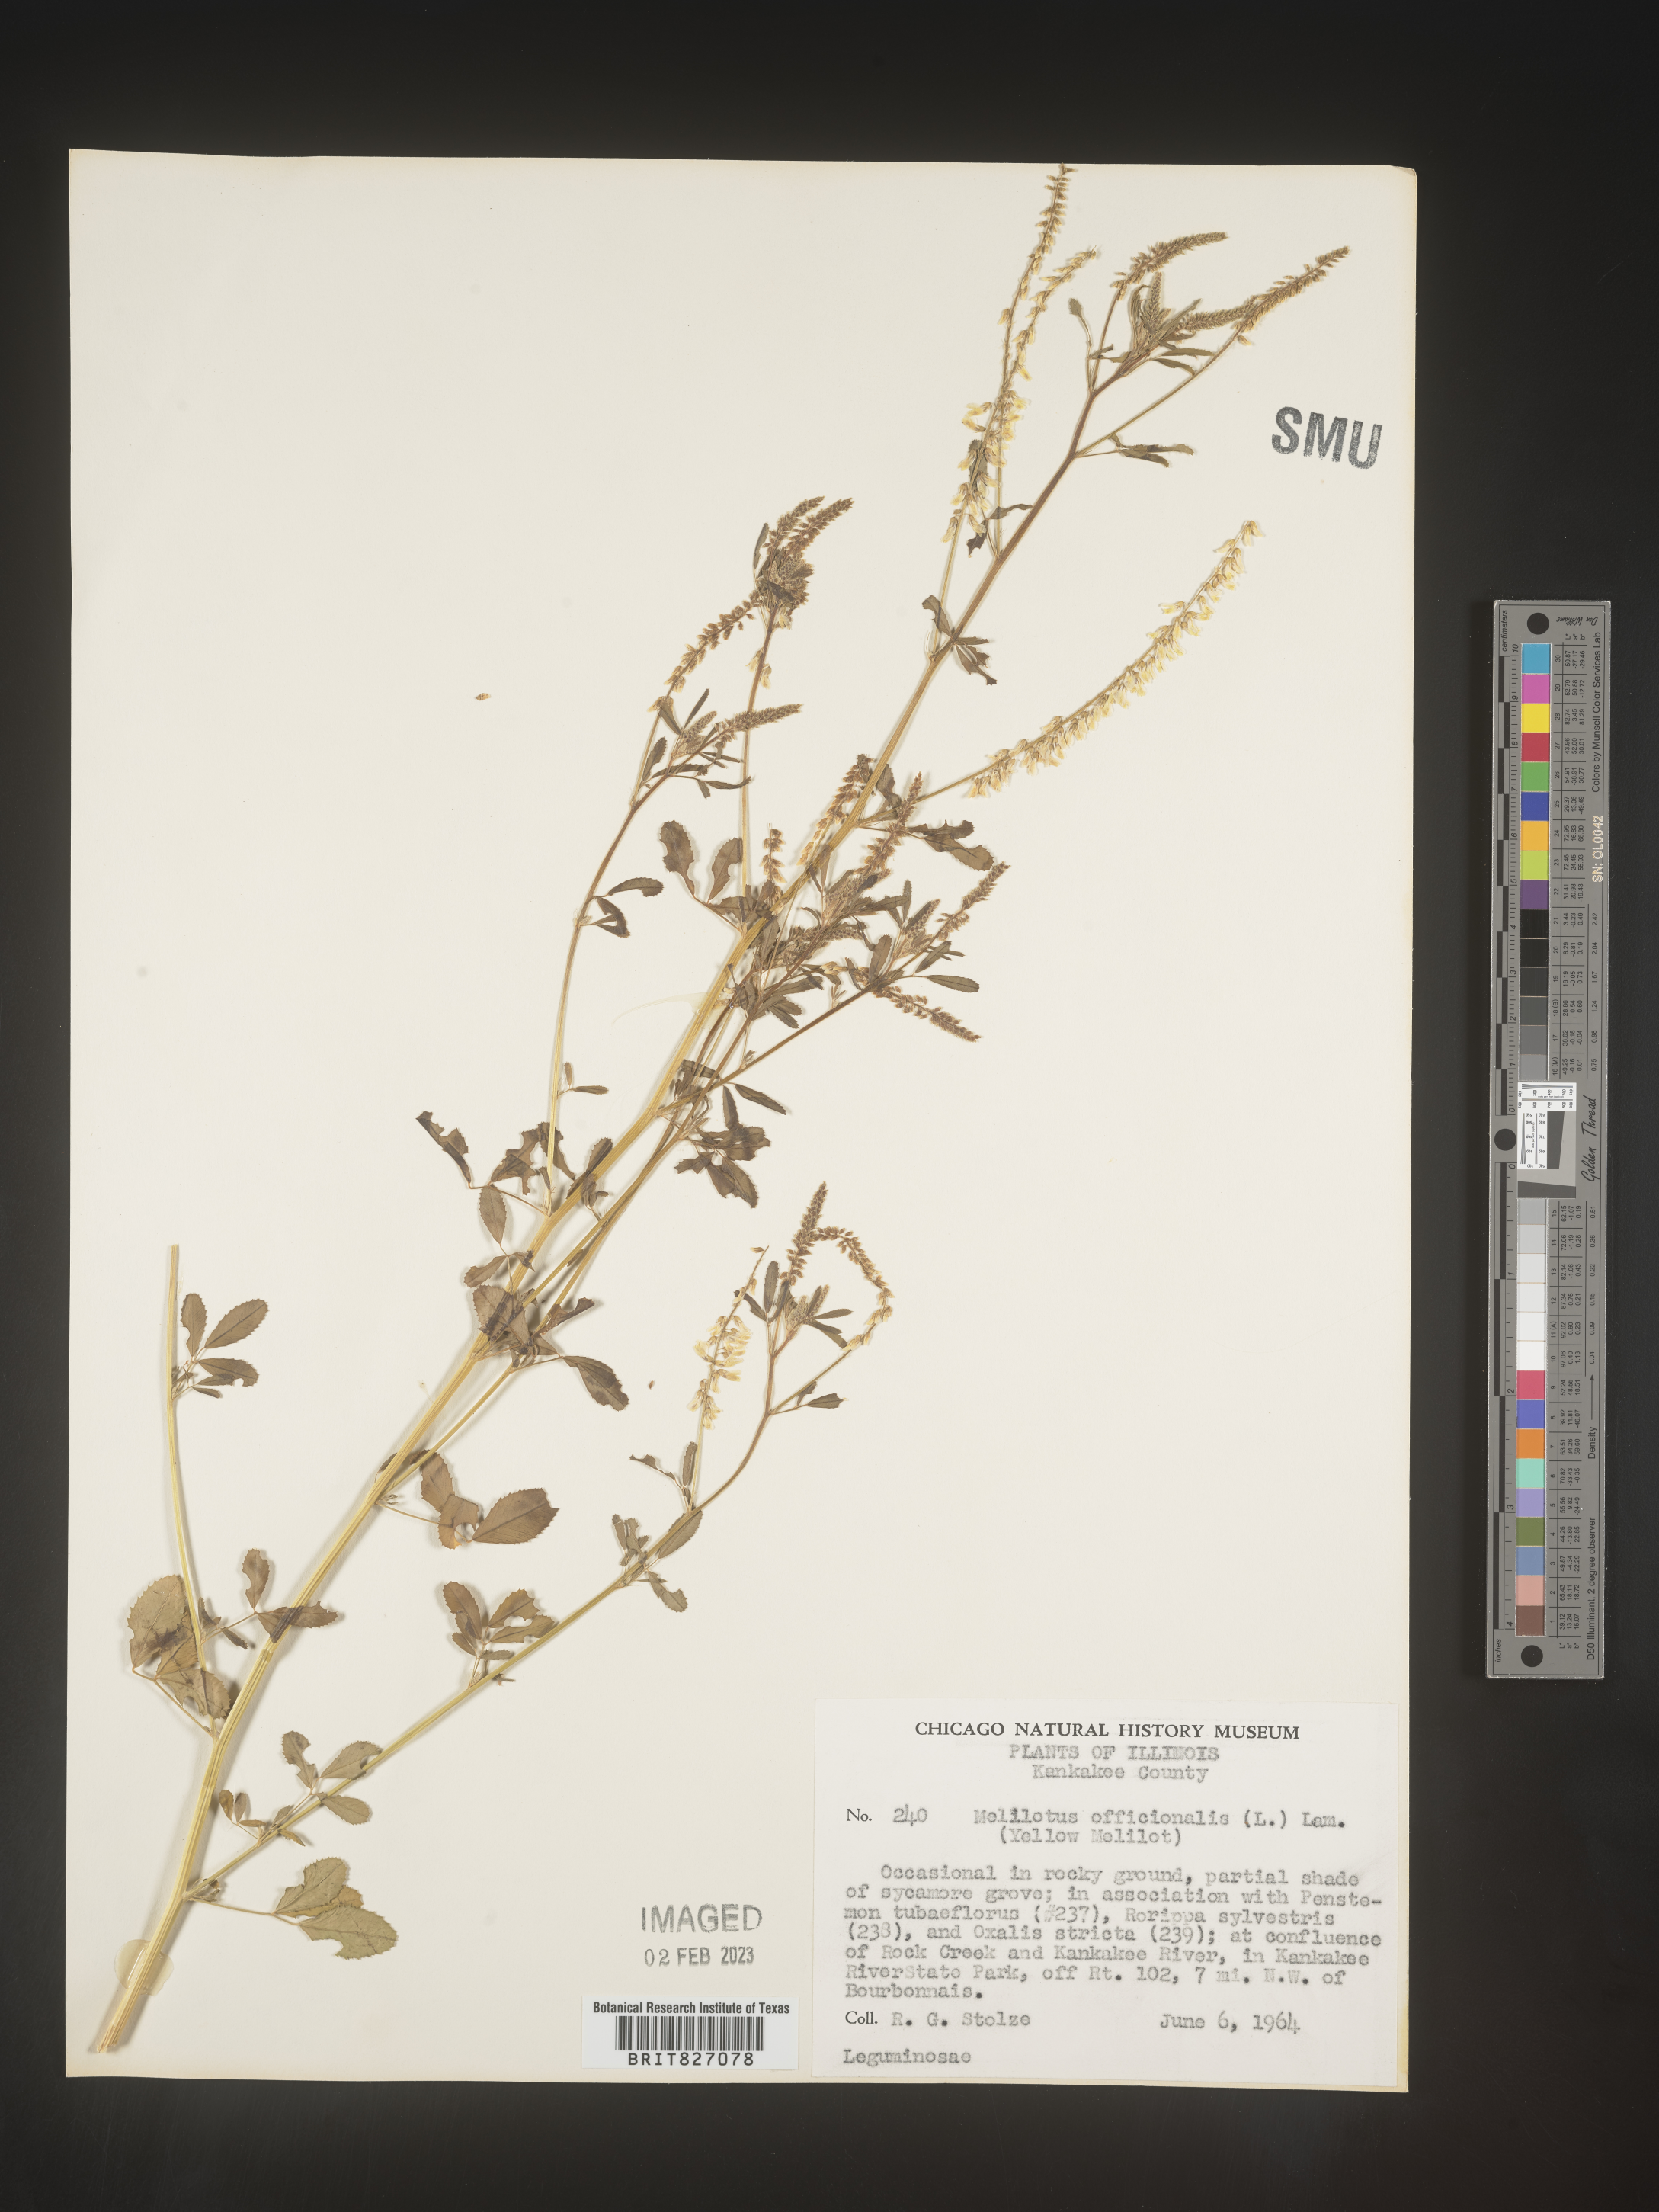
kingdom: Plantae
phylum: Tracheophyta
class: Magnoliopsida
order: Fabales
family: Fabaceae
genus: Melilotus
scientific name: Melilotus officinalis
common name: Sweetclover
